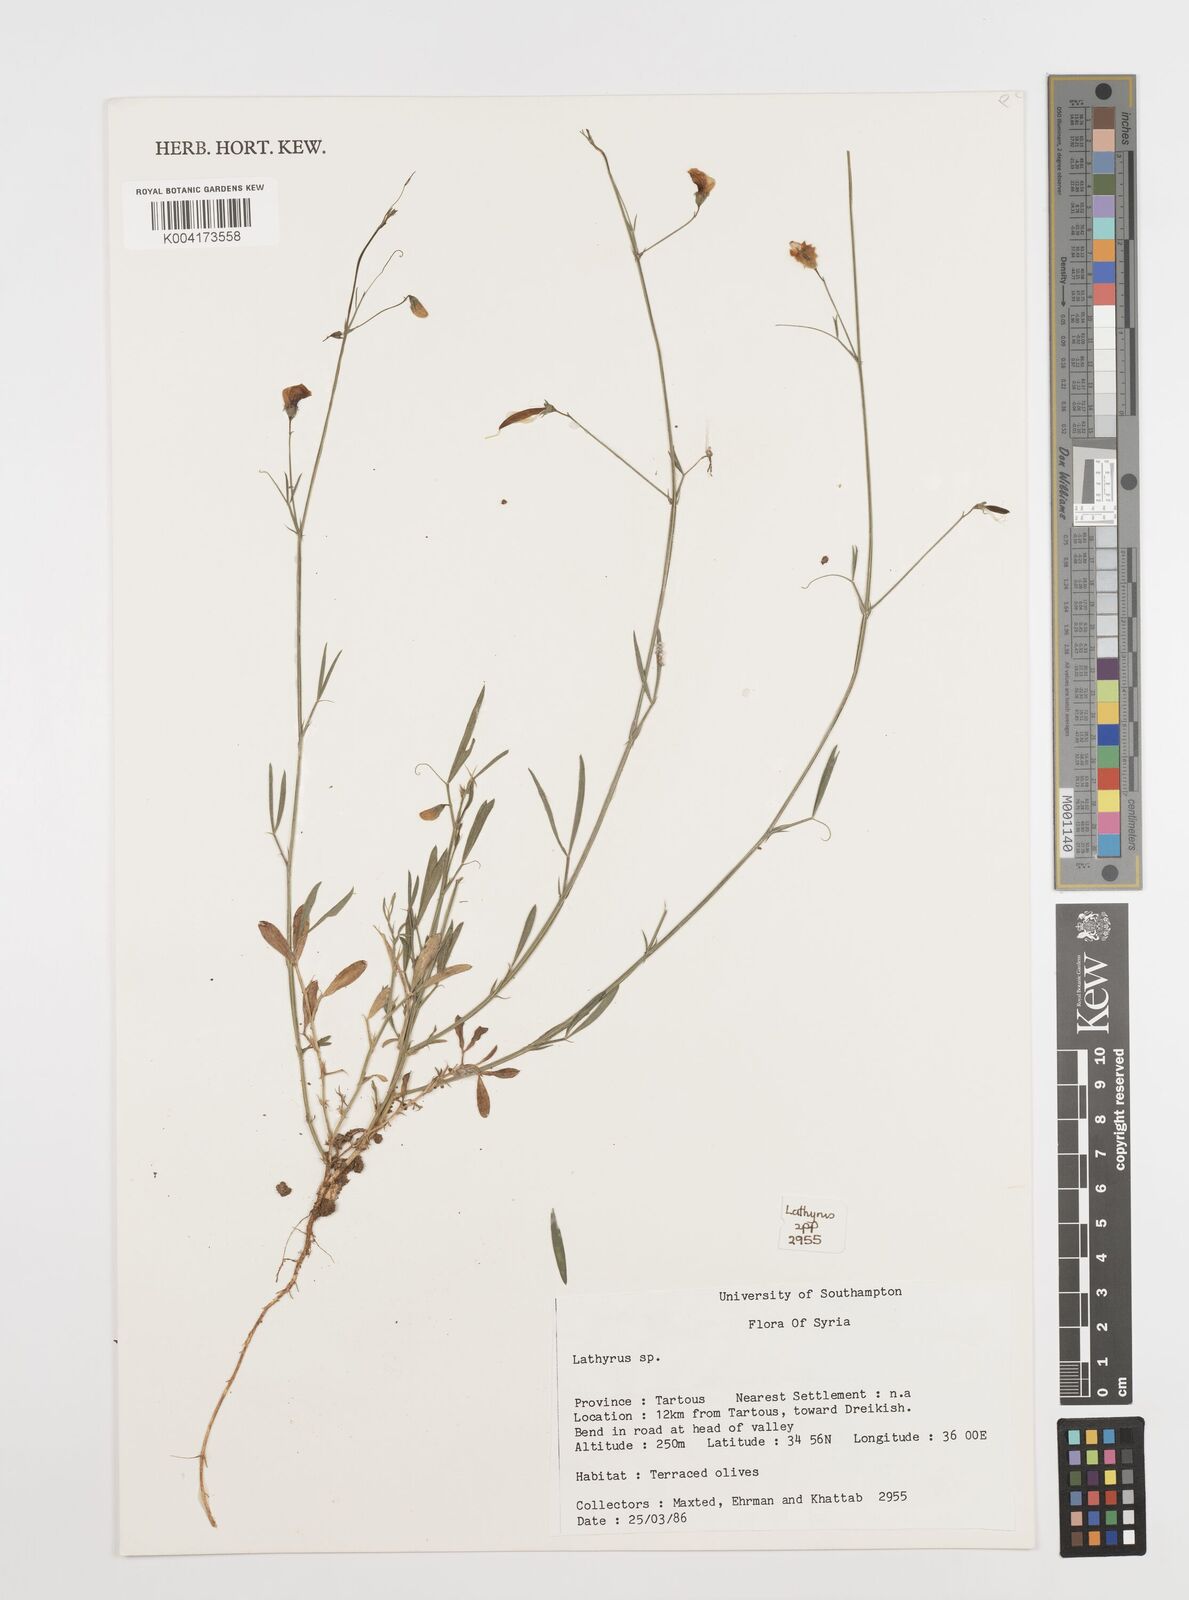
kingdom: Plantae
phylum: Tracheophyta
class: Magnoliopsida
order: Fabales
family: Fabaceae
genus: Lathyrus
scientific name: Lathyrus
